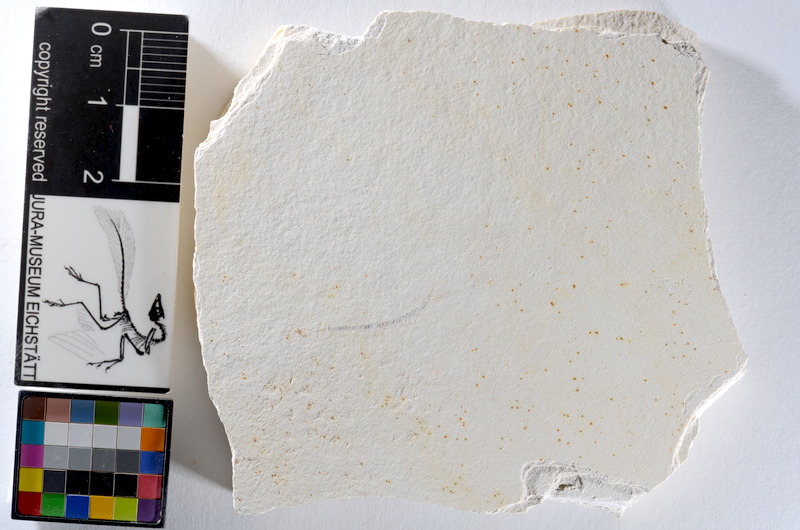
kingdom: Animalia
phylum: Chordata
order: Salmoniformes
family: Orthogonikleithridae
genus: Orthogonikleithrus
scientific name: Orthogonikleithrus hoelli
